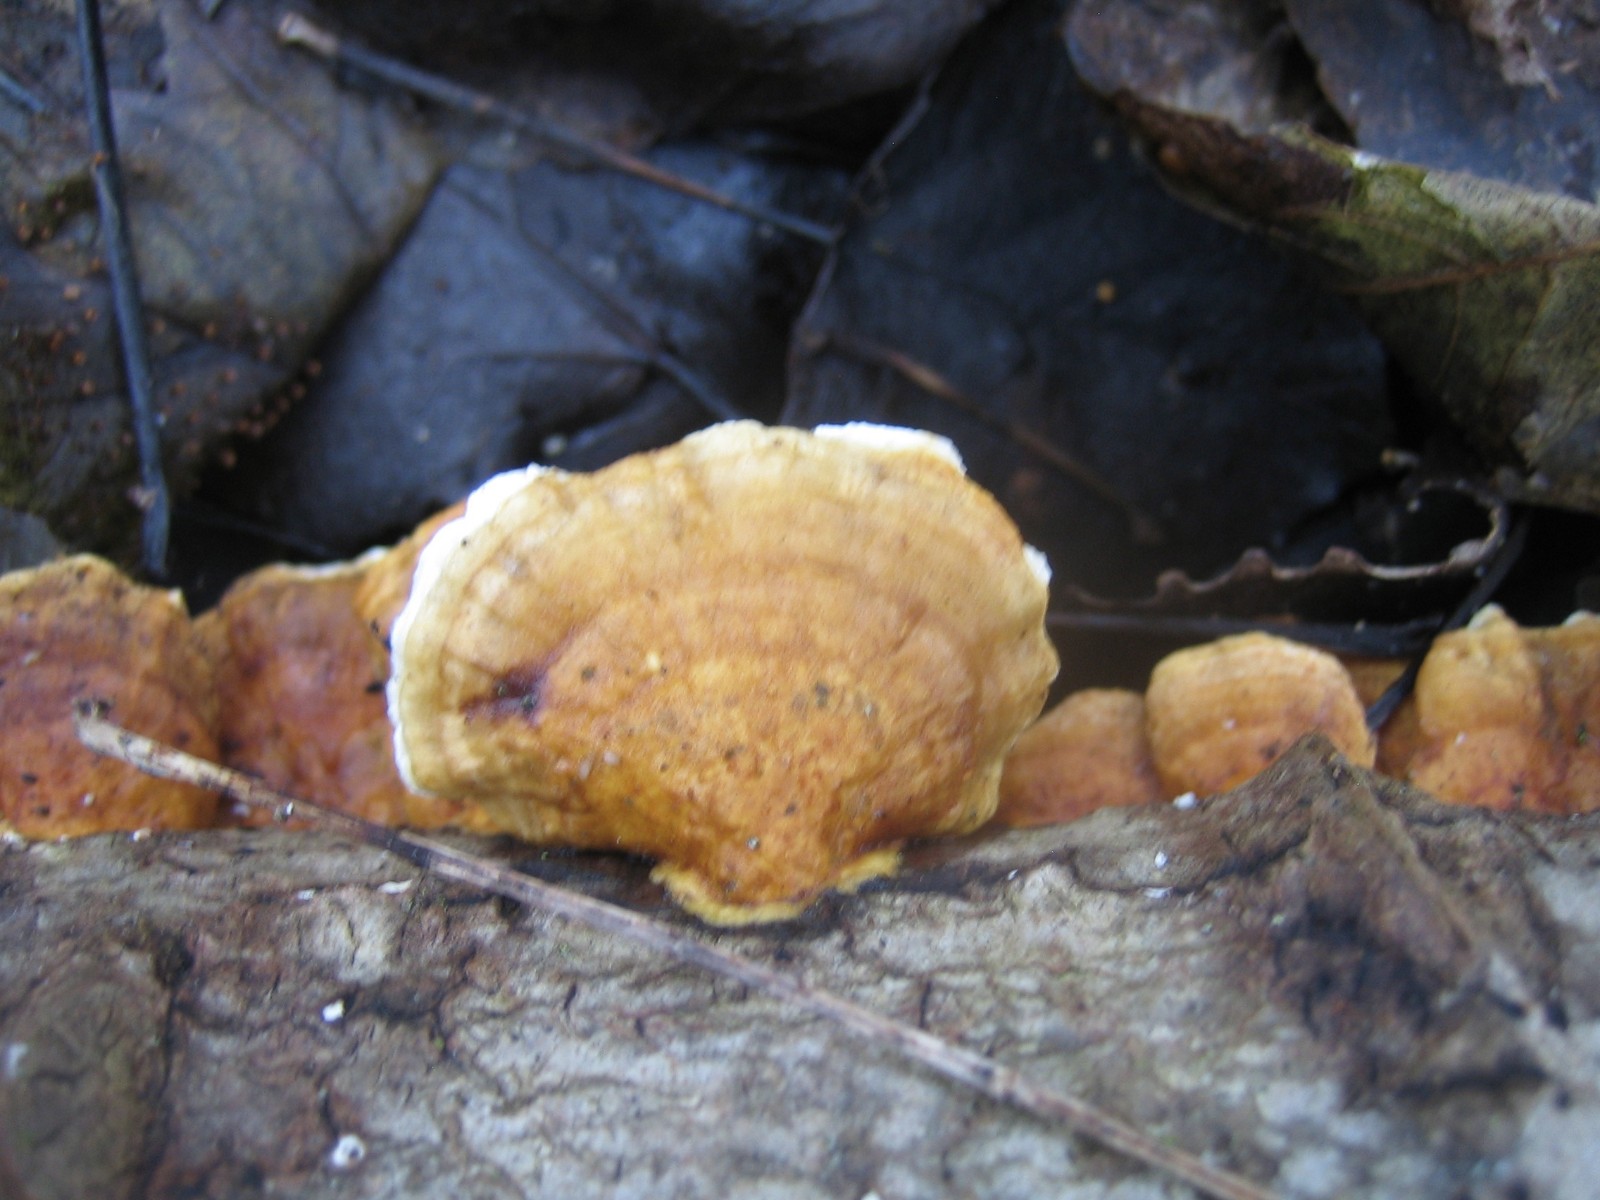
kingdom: Fungi
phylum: Basidiomycota
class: Agaricomycetes
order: Polyporales
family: Polyporaceae
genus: Trametes
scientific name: Trametes ochracea
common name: bæltet læderporesvamp
